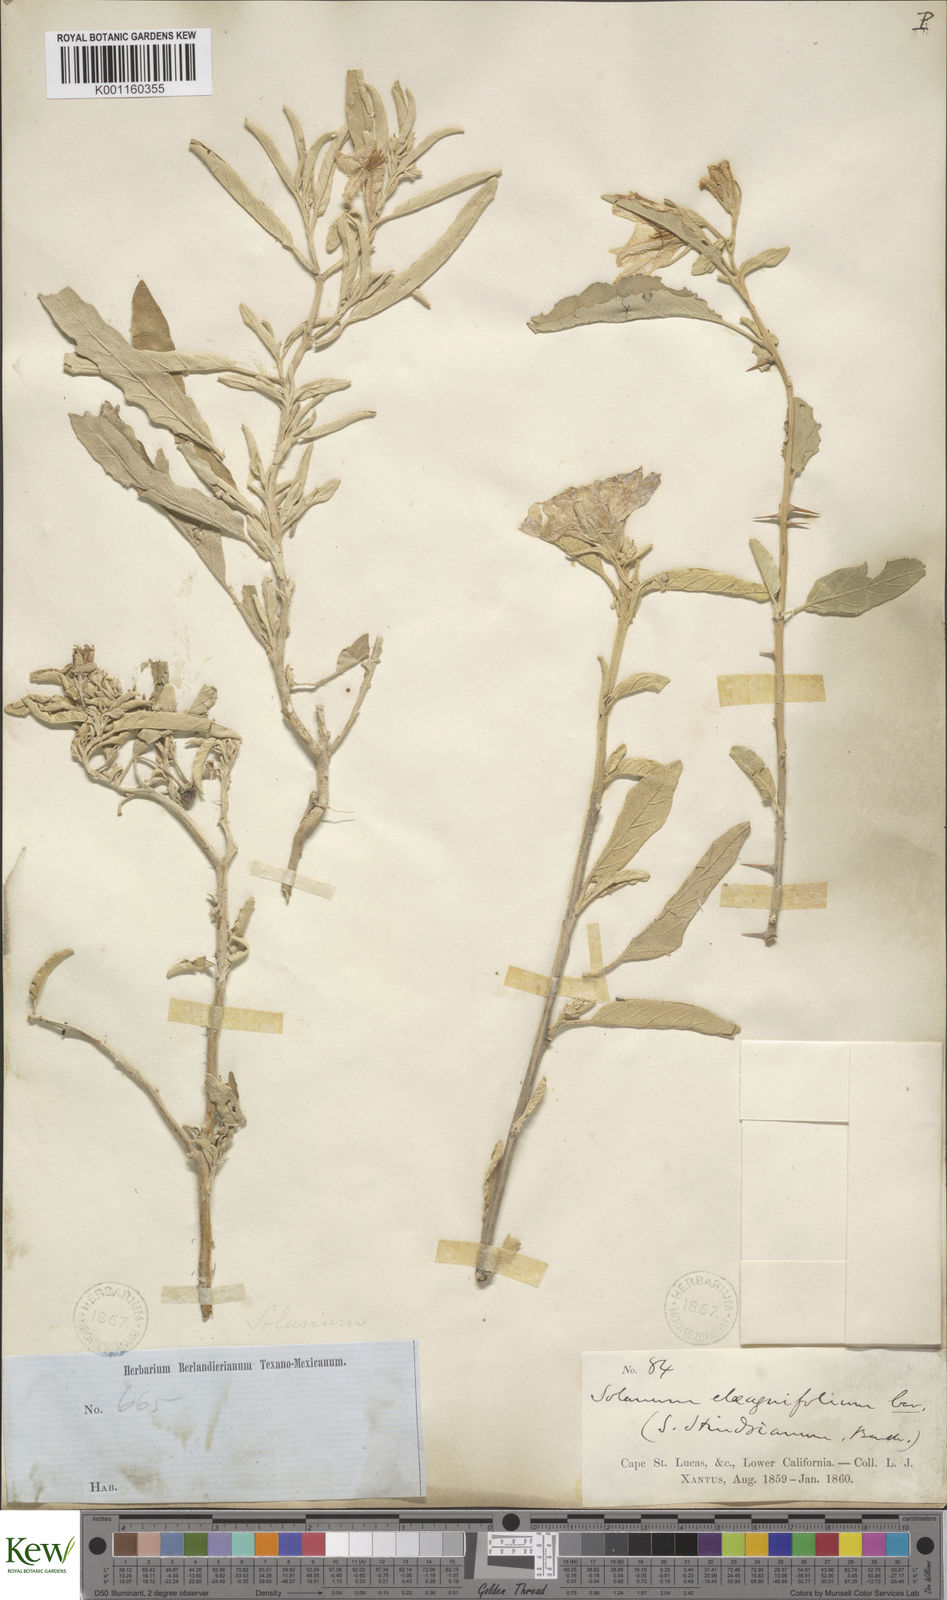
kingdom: Plantae
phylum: Tracheophyta
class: Magnoliopsida
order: Solanales
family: Solanaceae
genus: Solanum
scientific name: Solanum hindsianum
